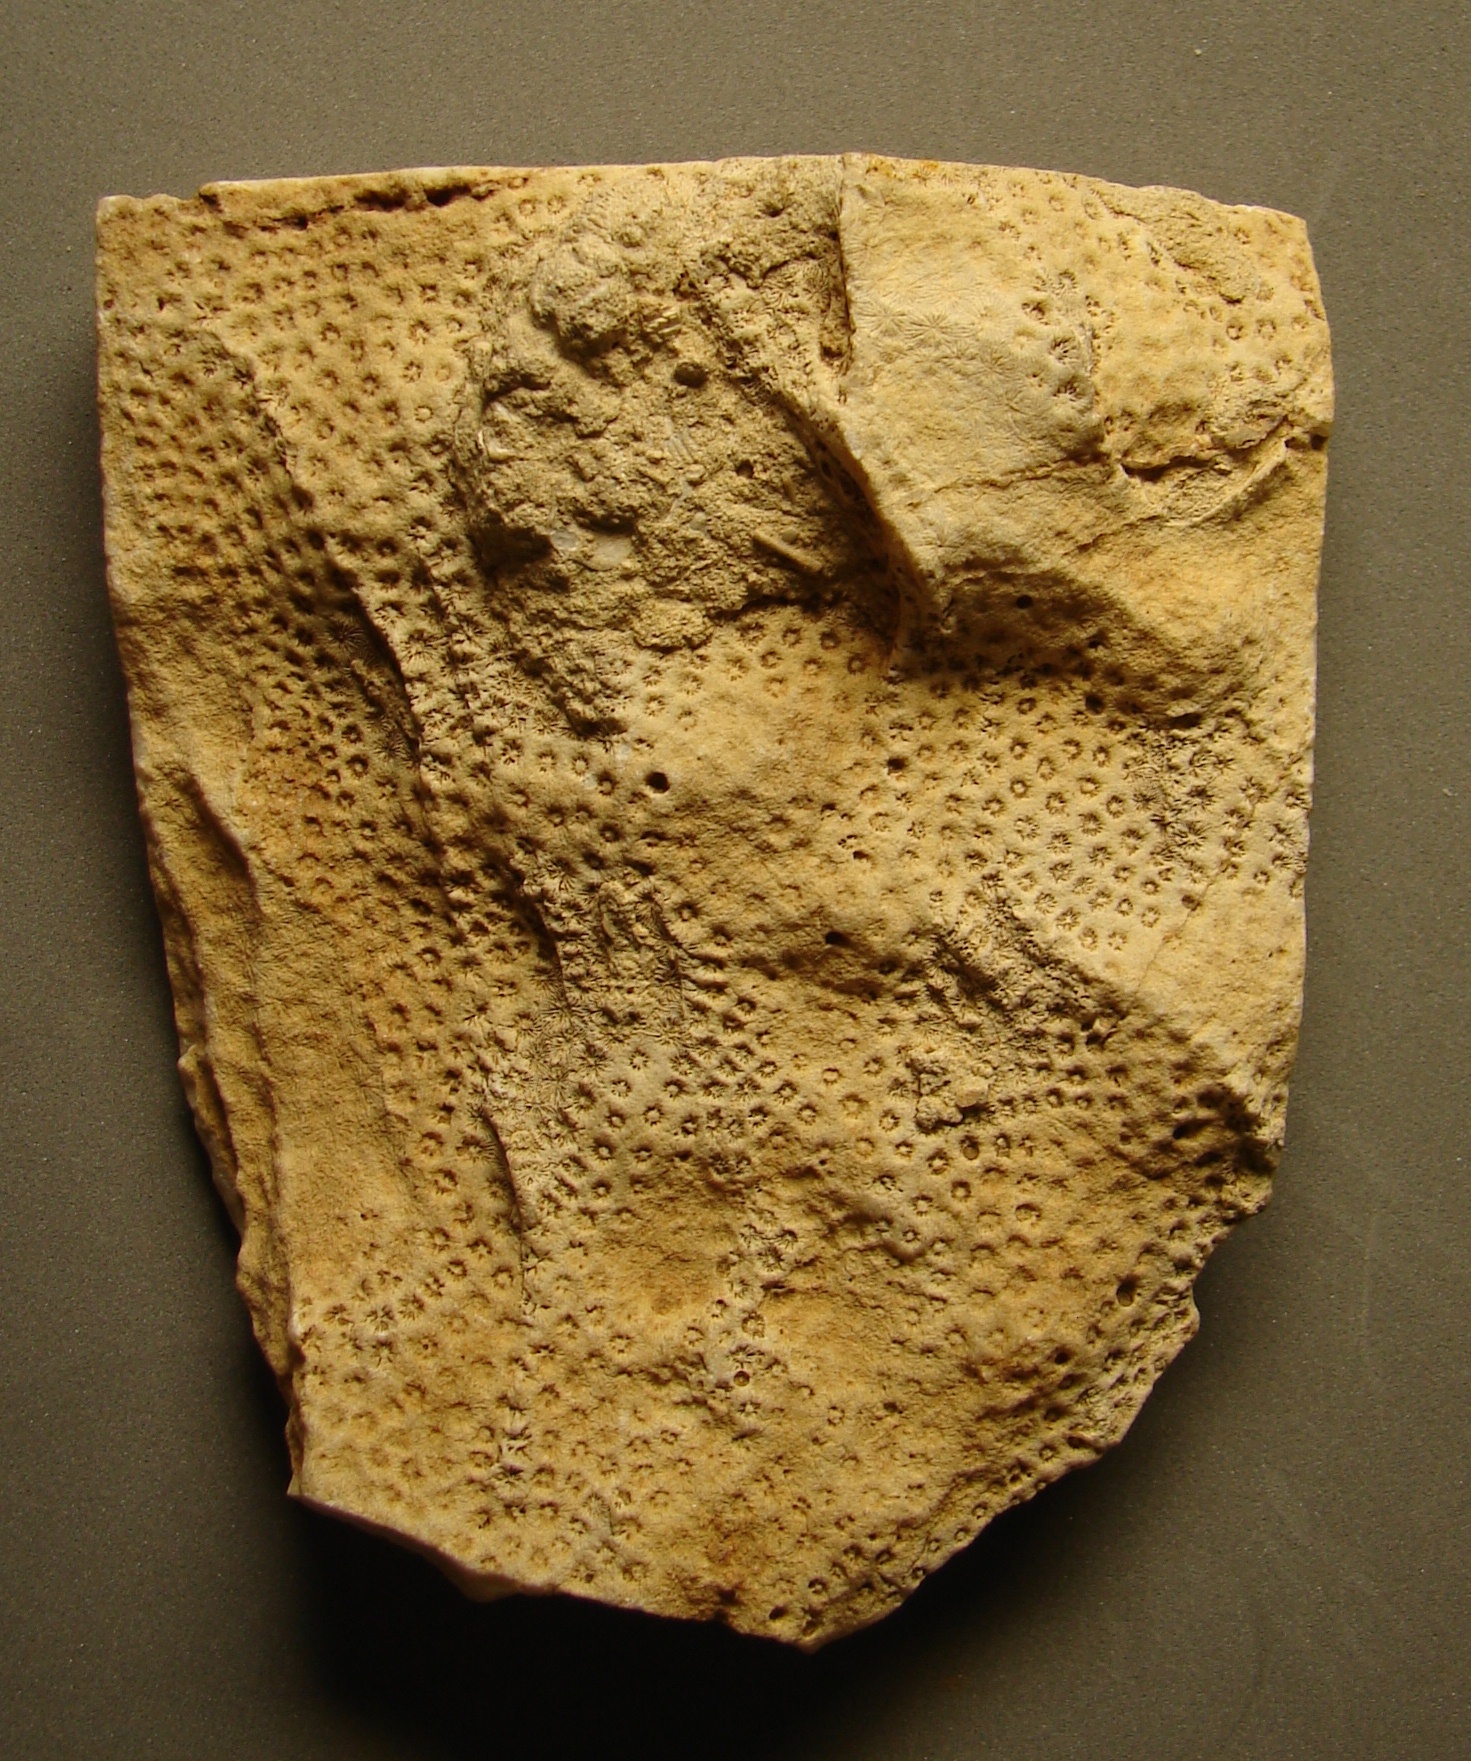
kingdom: Animalia
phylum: Cnidaria
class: Anthozoa
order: Scleractinia
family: Latomeandridae
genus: Periseris
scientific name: Periseris
